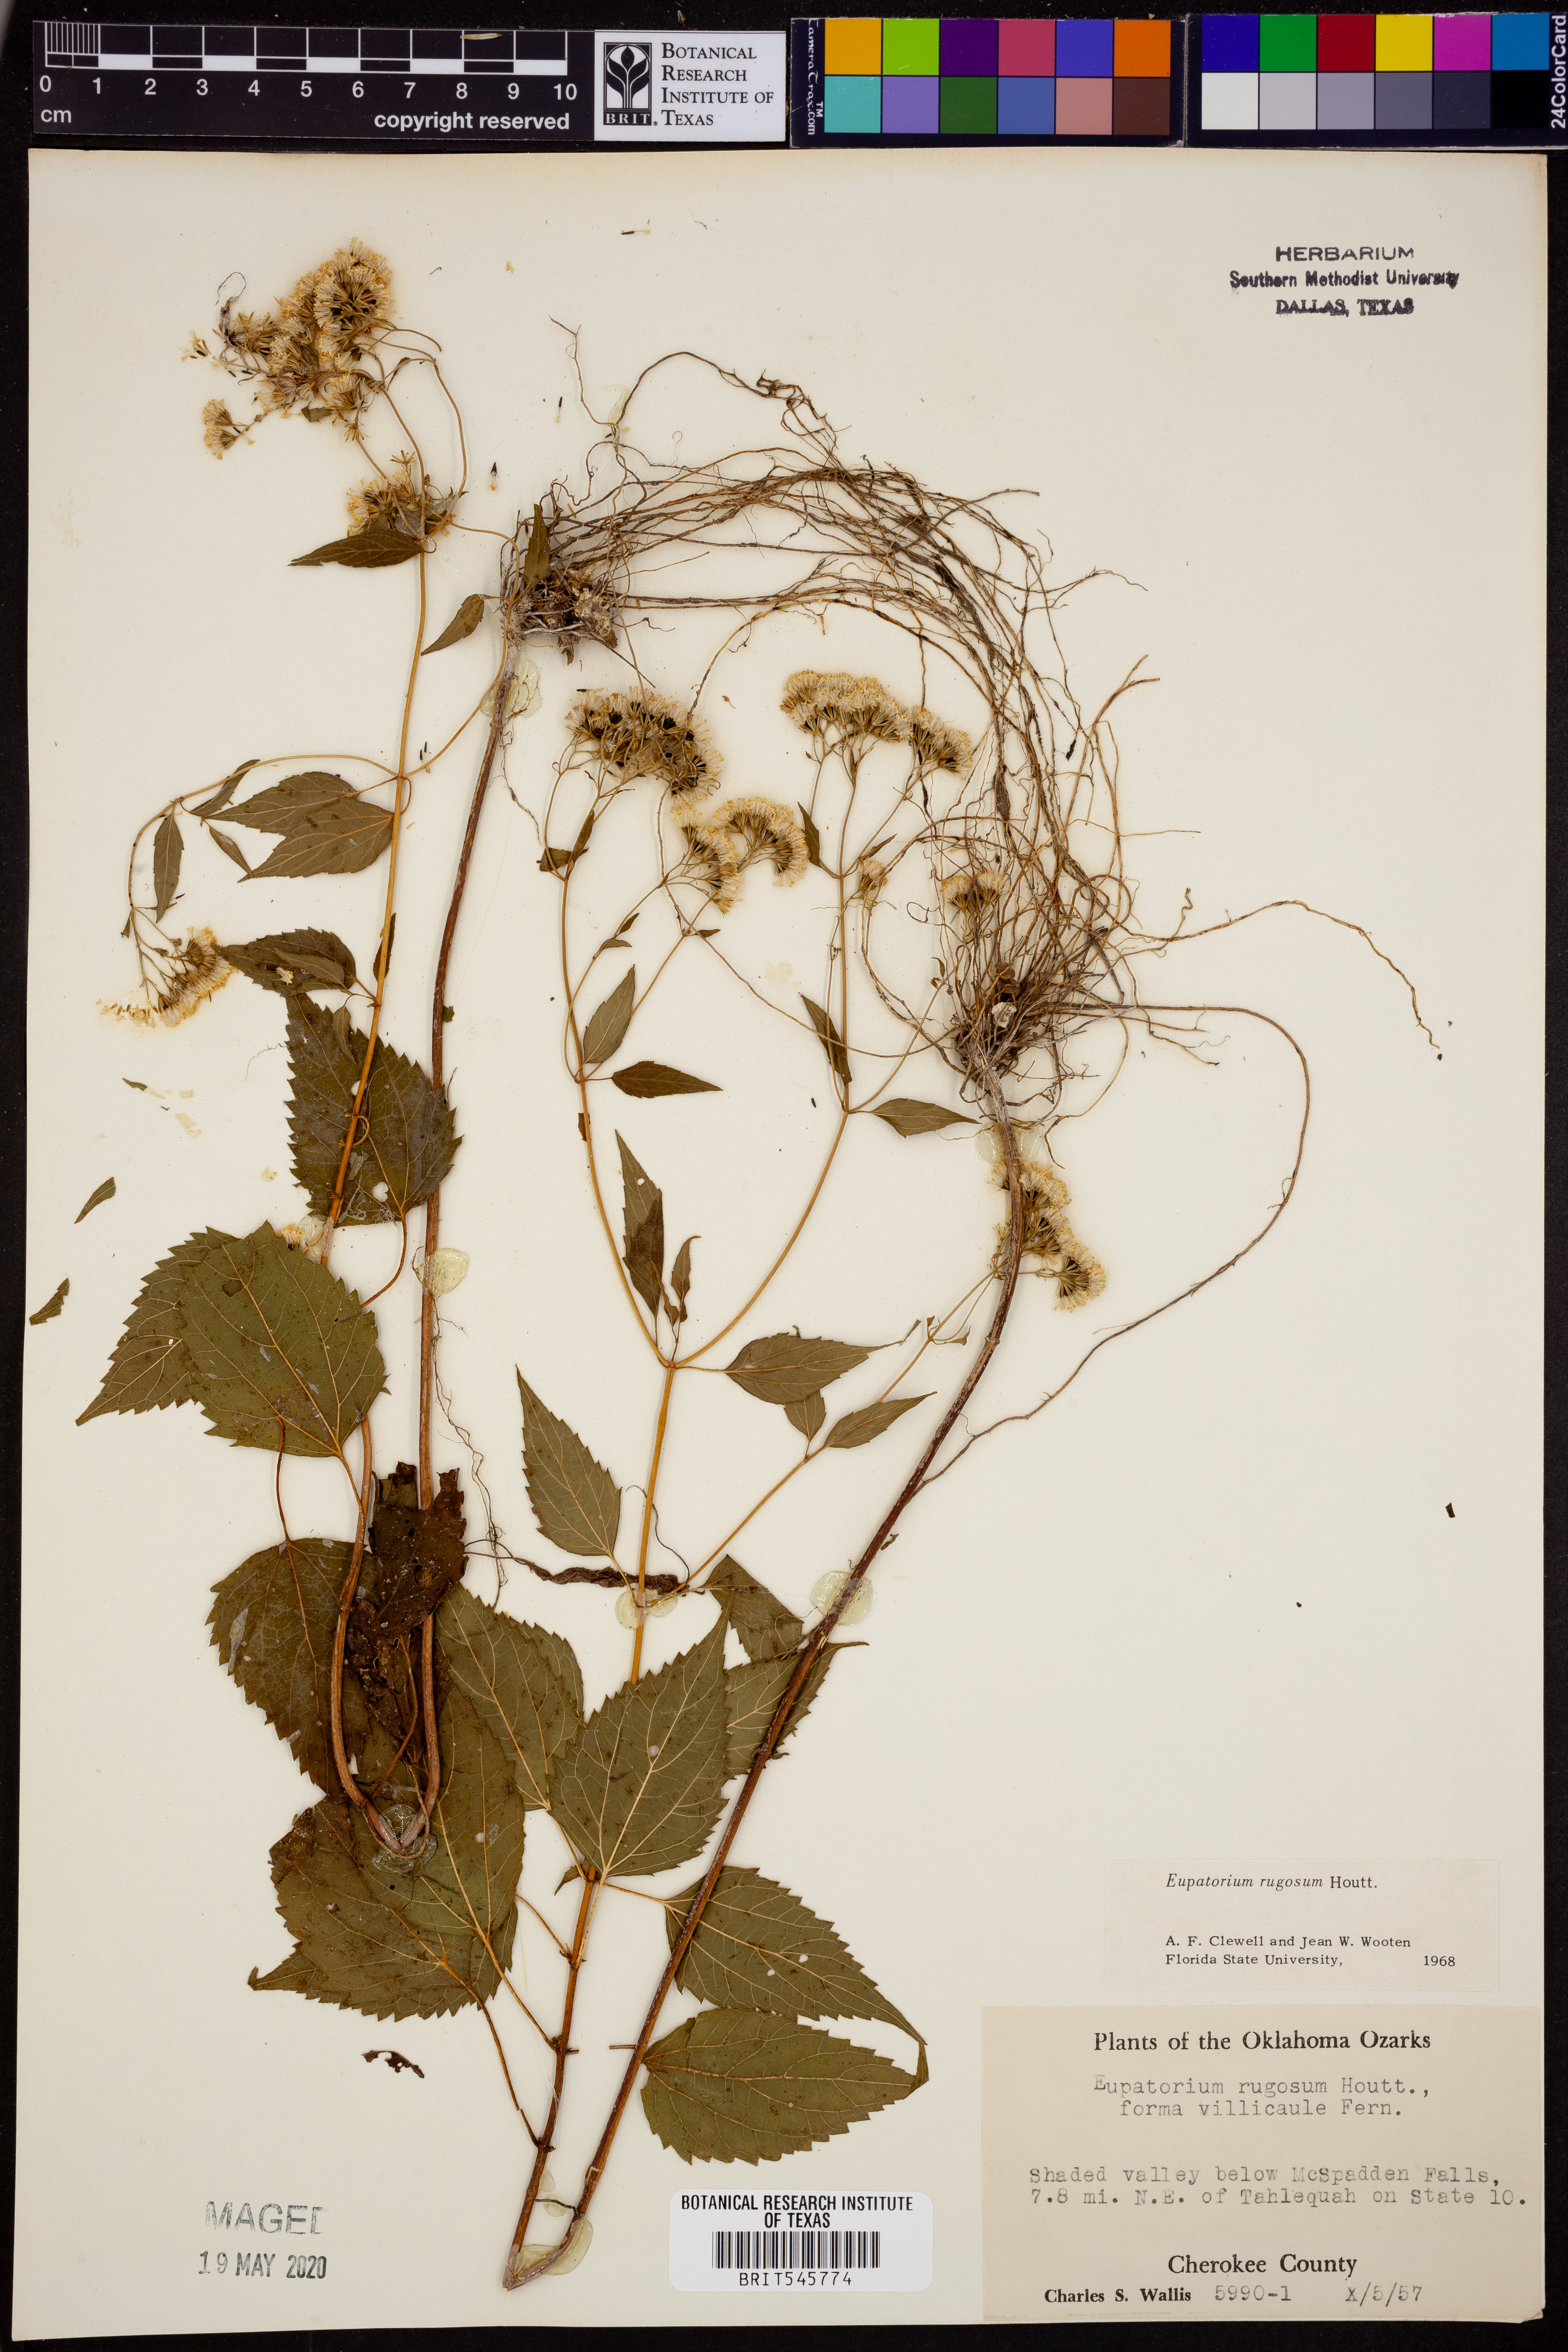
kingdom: Plantae
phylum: Tracheophyta
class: Magnoliopsida
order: Asterales
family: Asteraceae
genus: Cronquistianthus
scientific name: Cronquistianthus bulliferus
